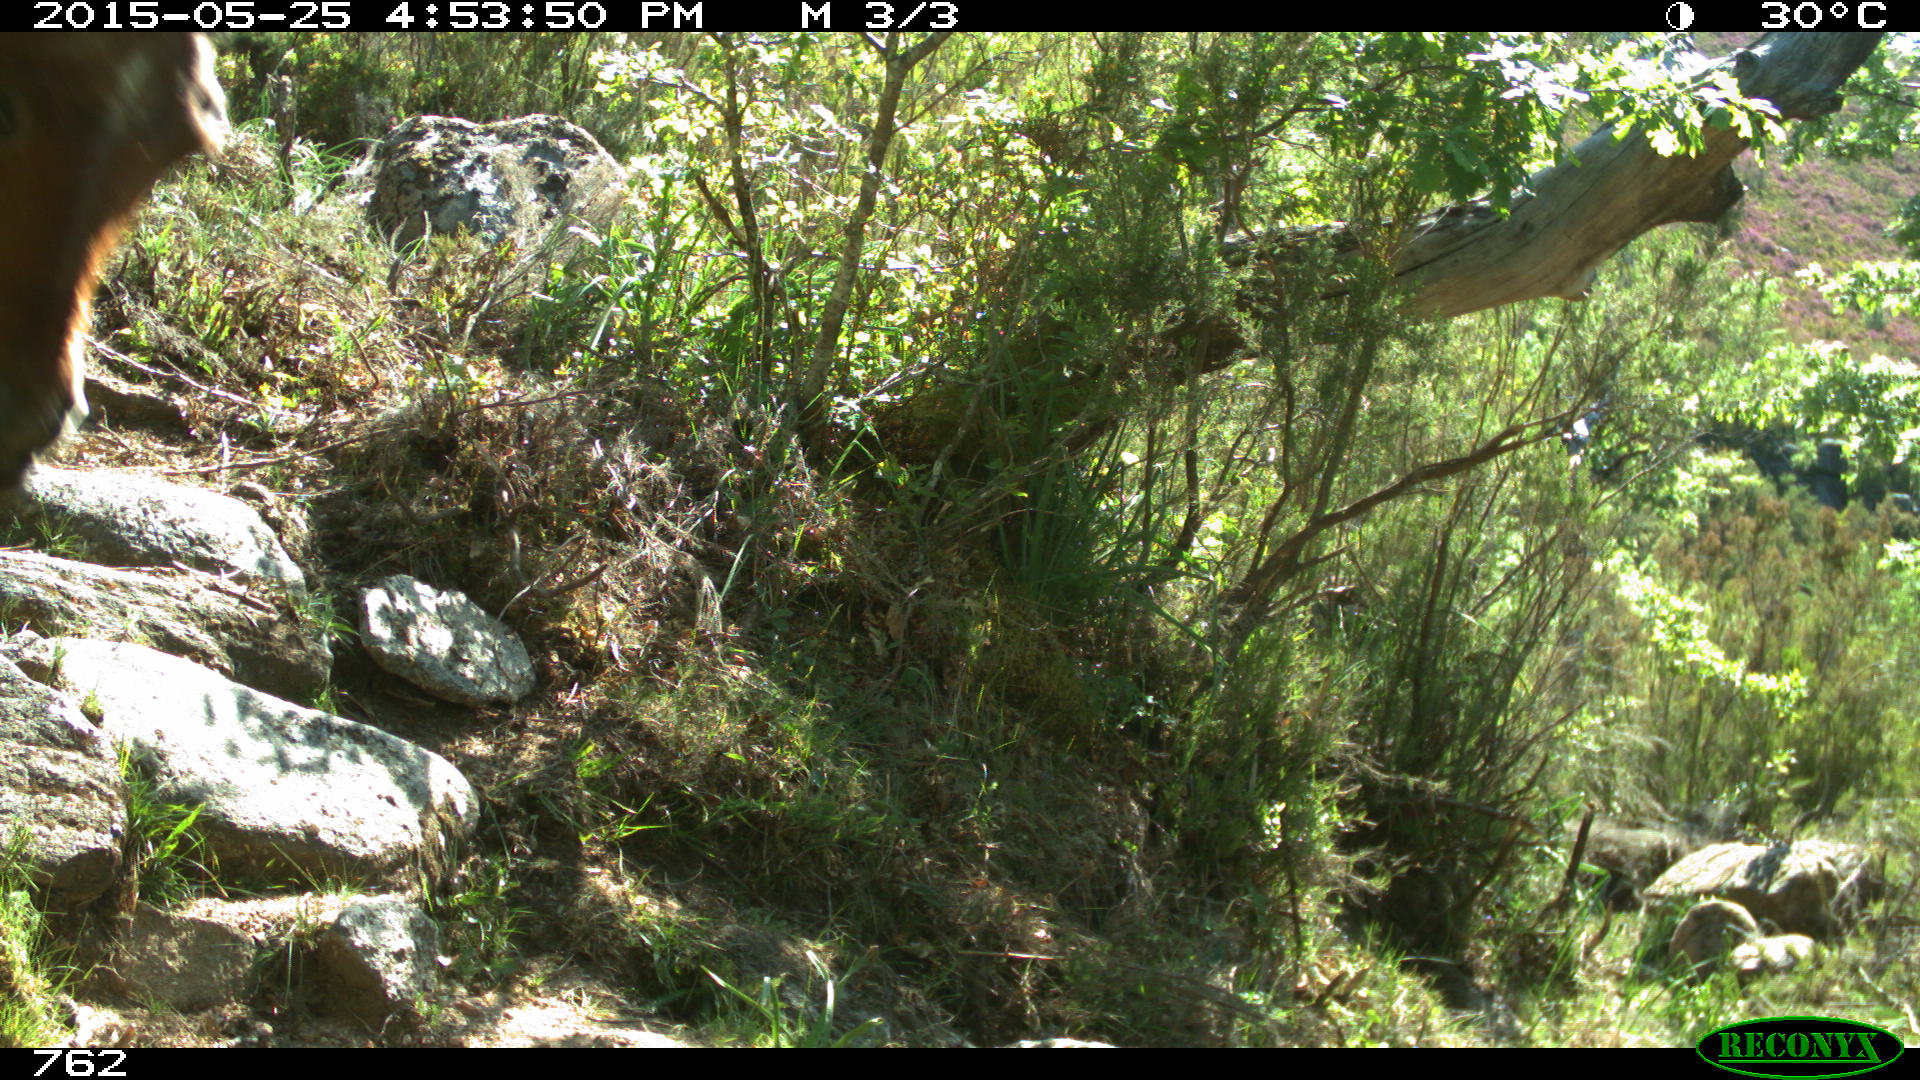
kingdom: Animalia
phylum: Chordata
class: Mammalia
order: Perissodactyla
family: Equidae
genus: Equus
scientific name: Equus caballus
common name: Horse
